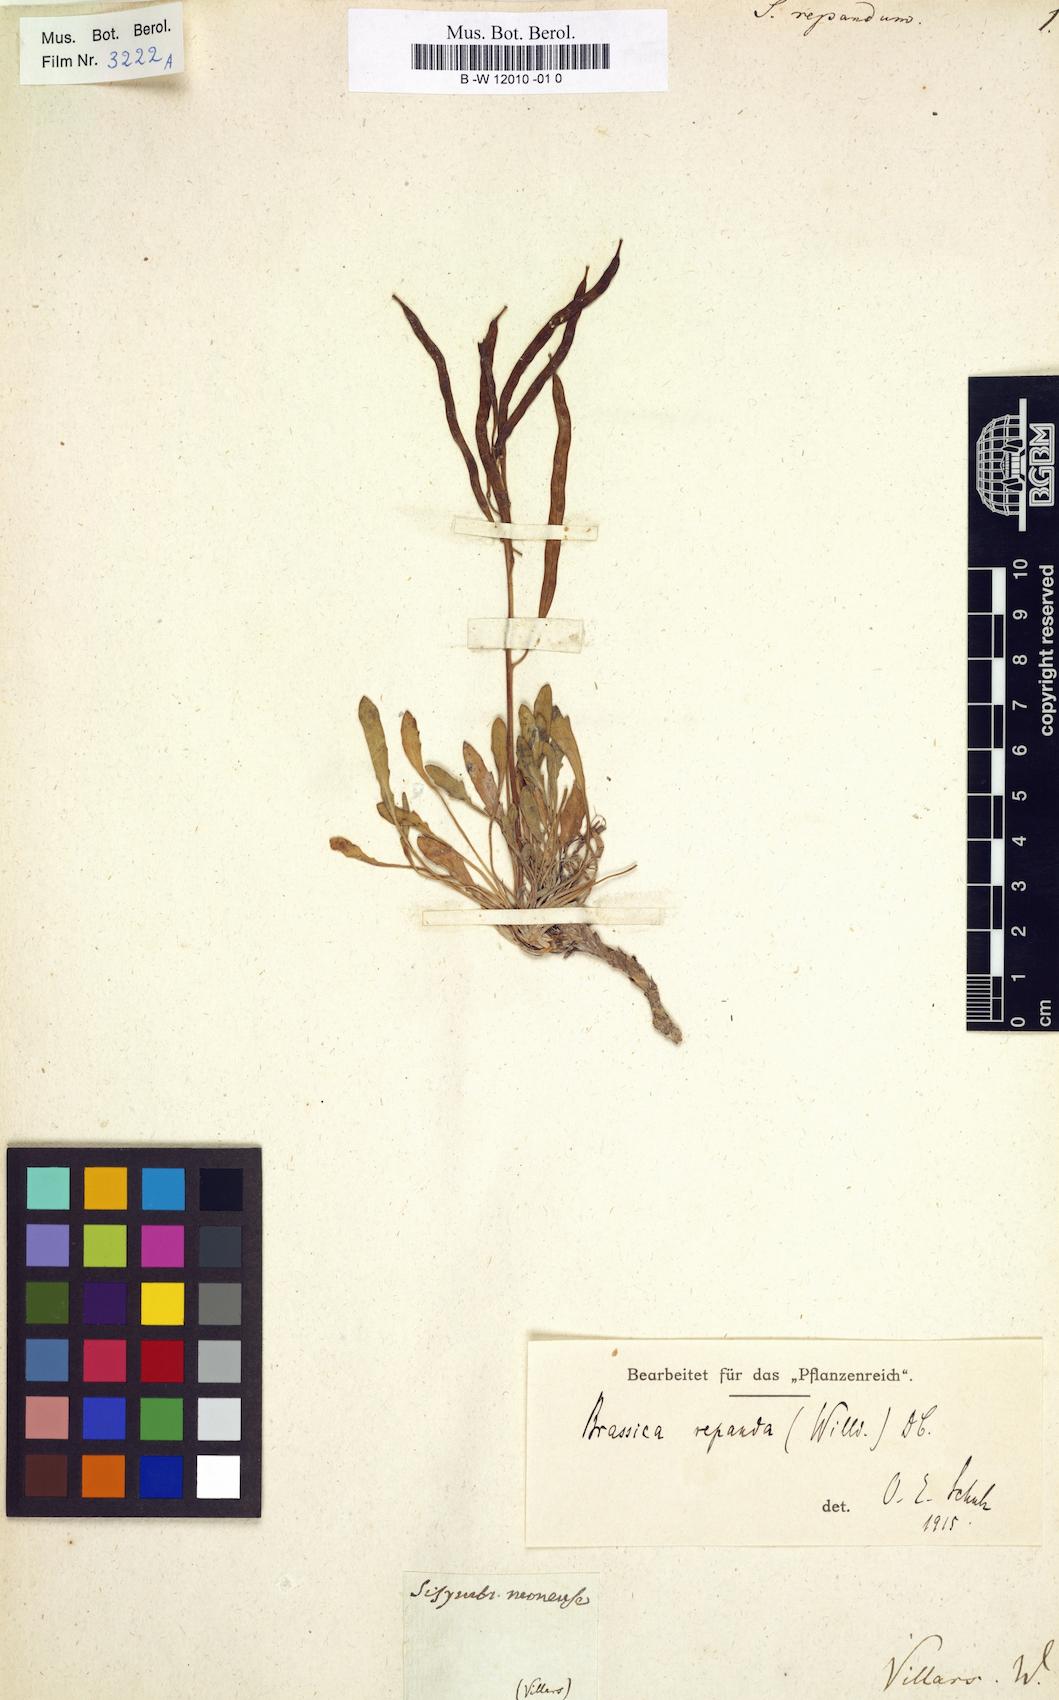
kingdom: Plantae
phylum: Tracheophyta
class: Magnoliopsida
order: Brassicales
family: Brassicaceae
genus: Sisymbrium
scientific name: Sisymbrium repandum
